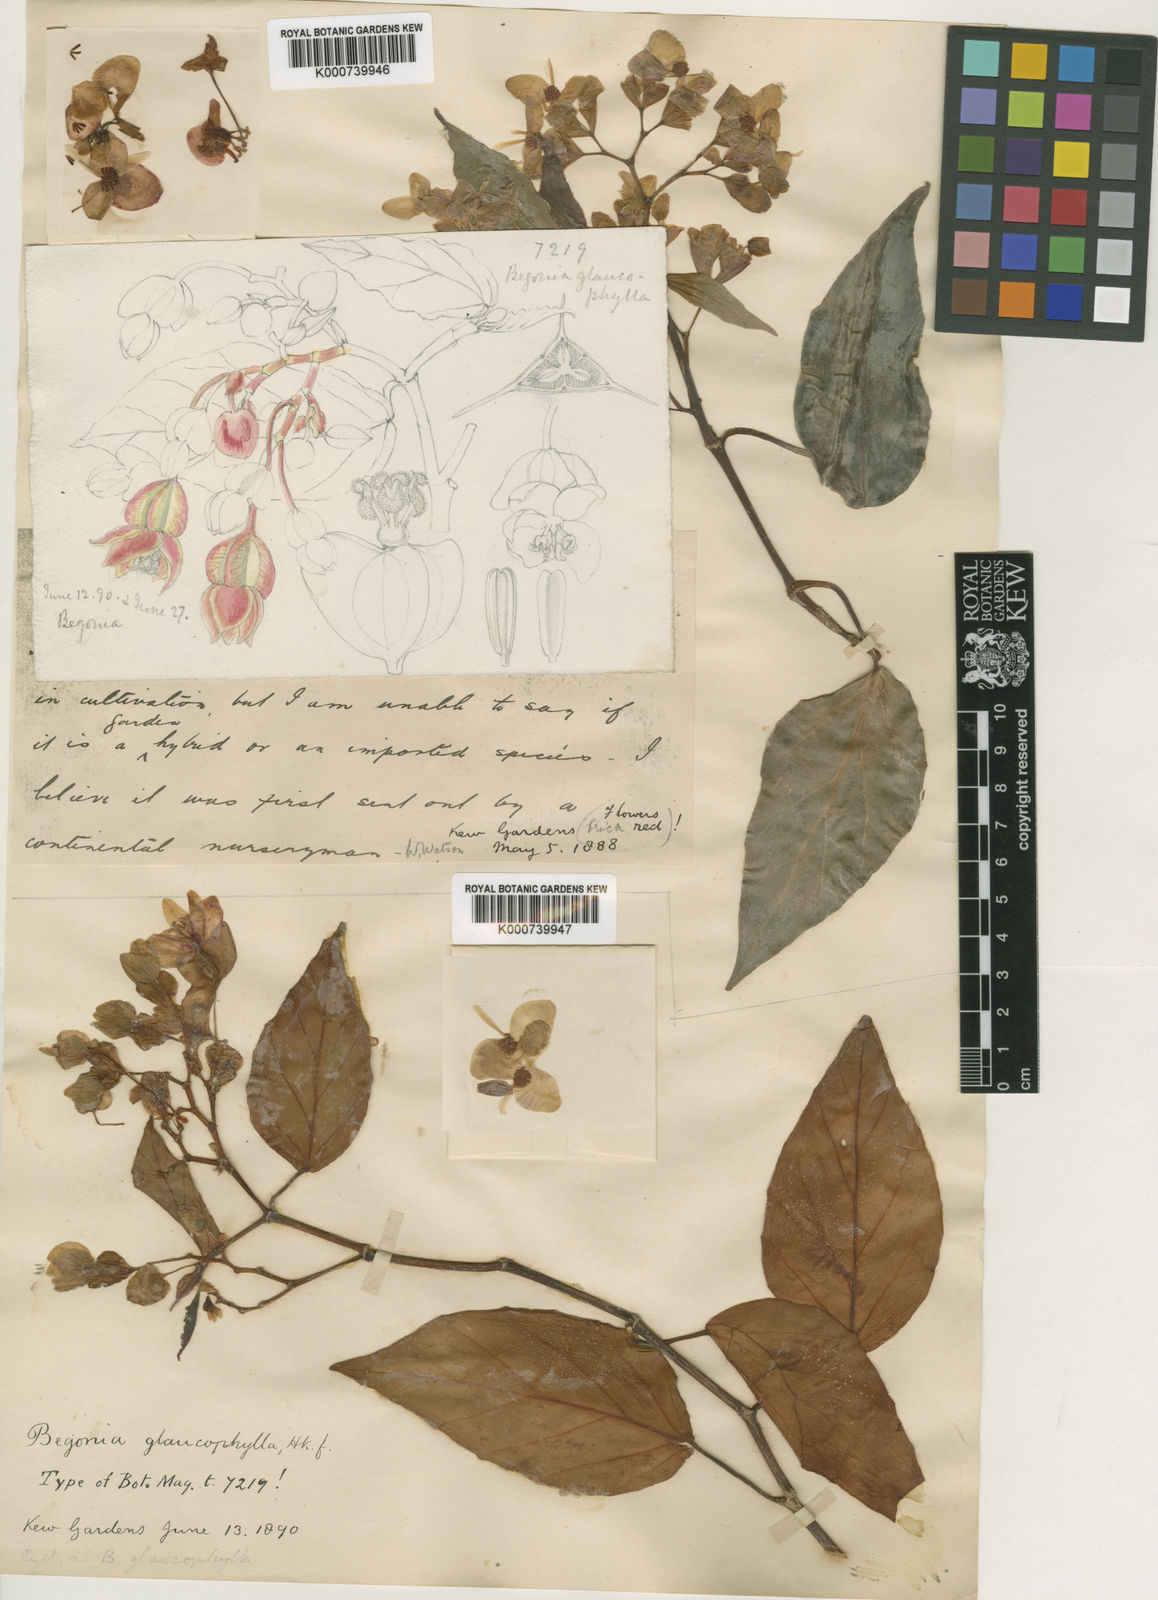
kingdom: Plantae
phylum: Tracheophyta
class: Magnoliopsida
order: Cucurbitales
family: Begoniaceae
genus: Begonia
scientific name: Begonia radicans
